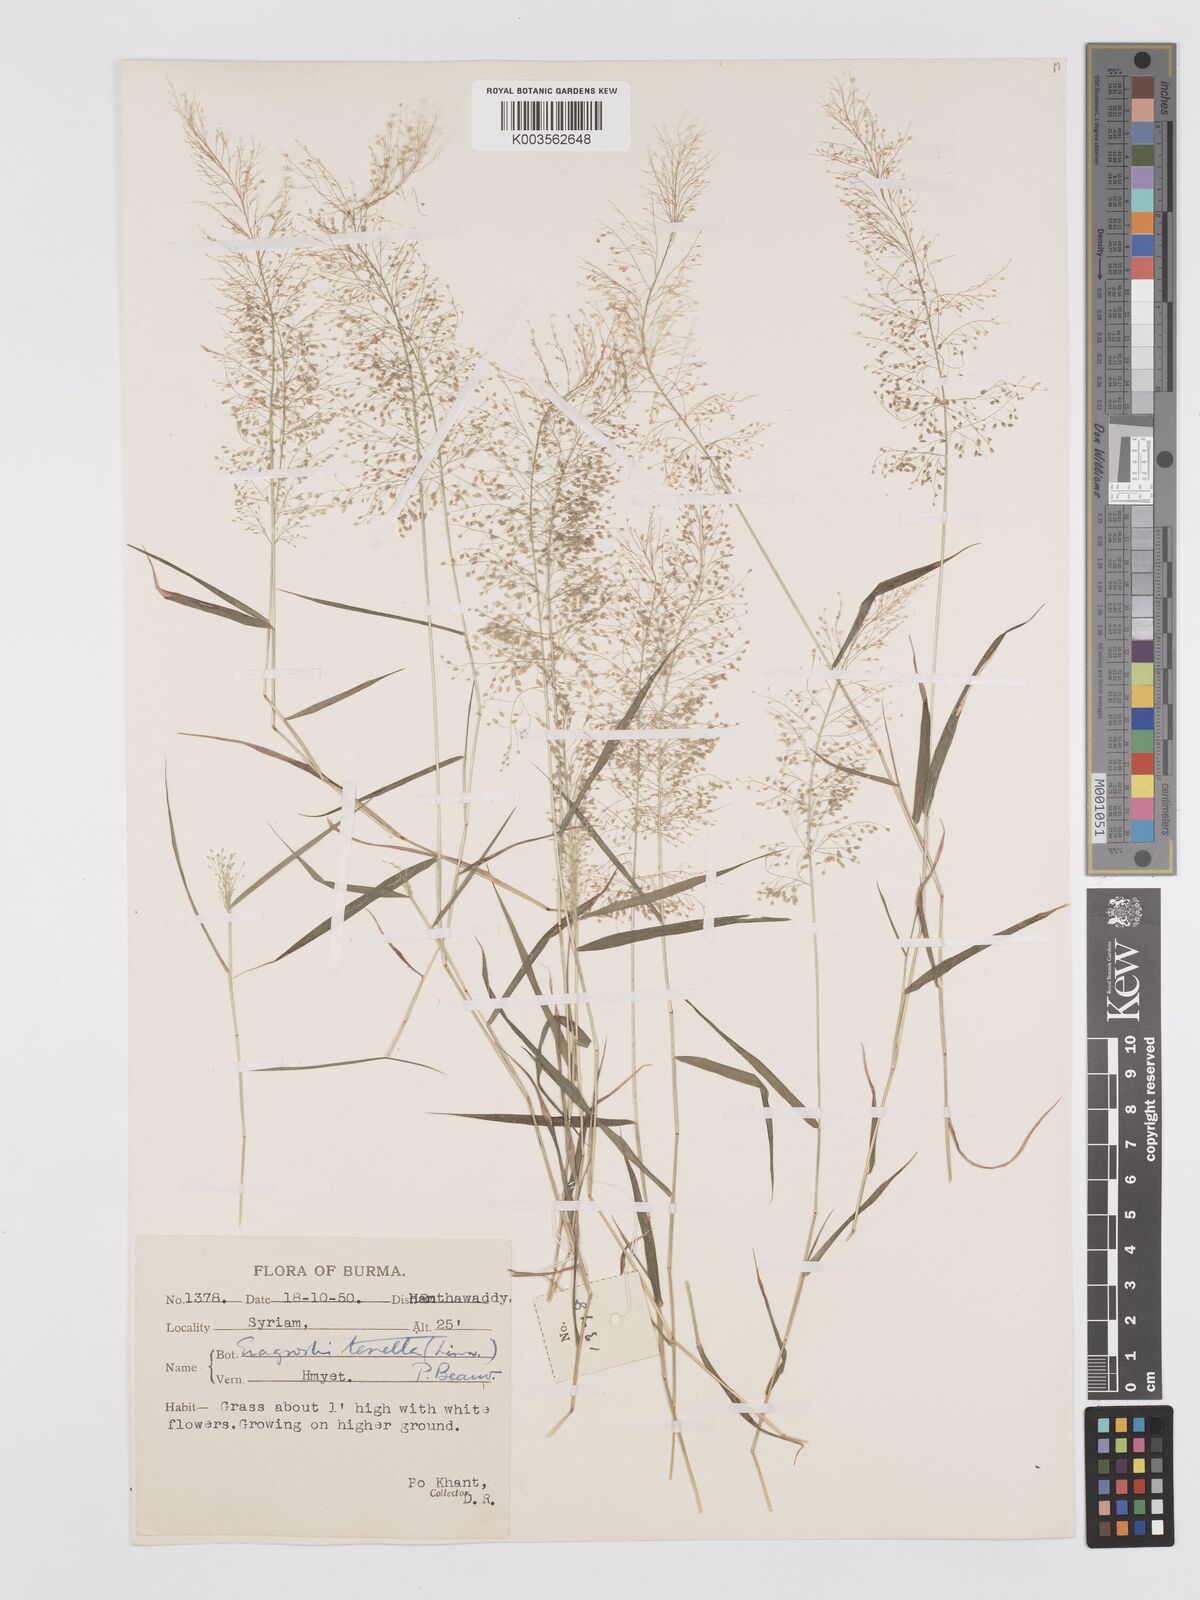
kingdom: Plantae
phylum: Tracheophyta
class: Liliopsida
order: Poales
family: Poaceae
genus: Eragrostis
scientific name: Eragrostis tenella
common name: Japanese lovegrass
